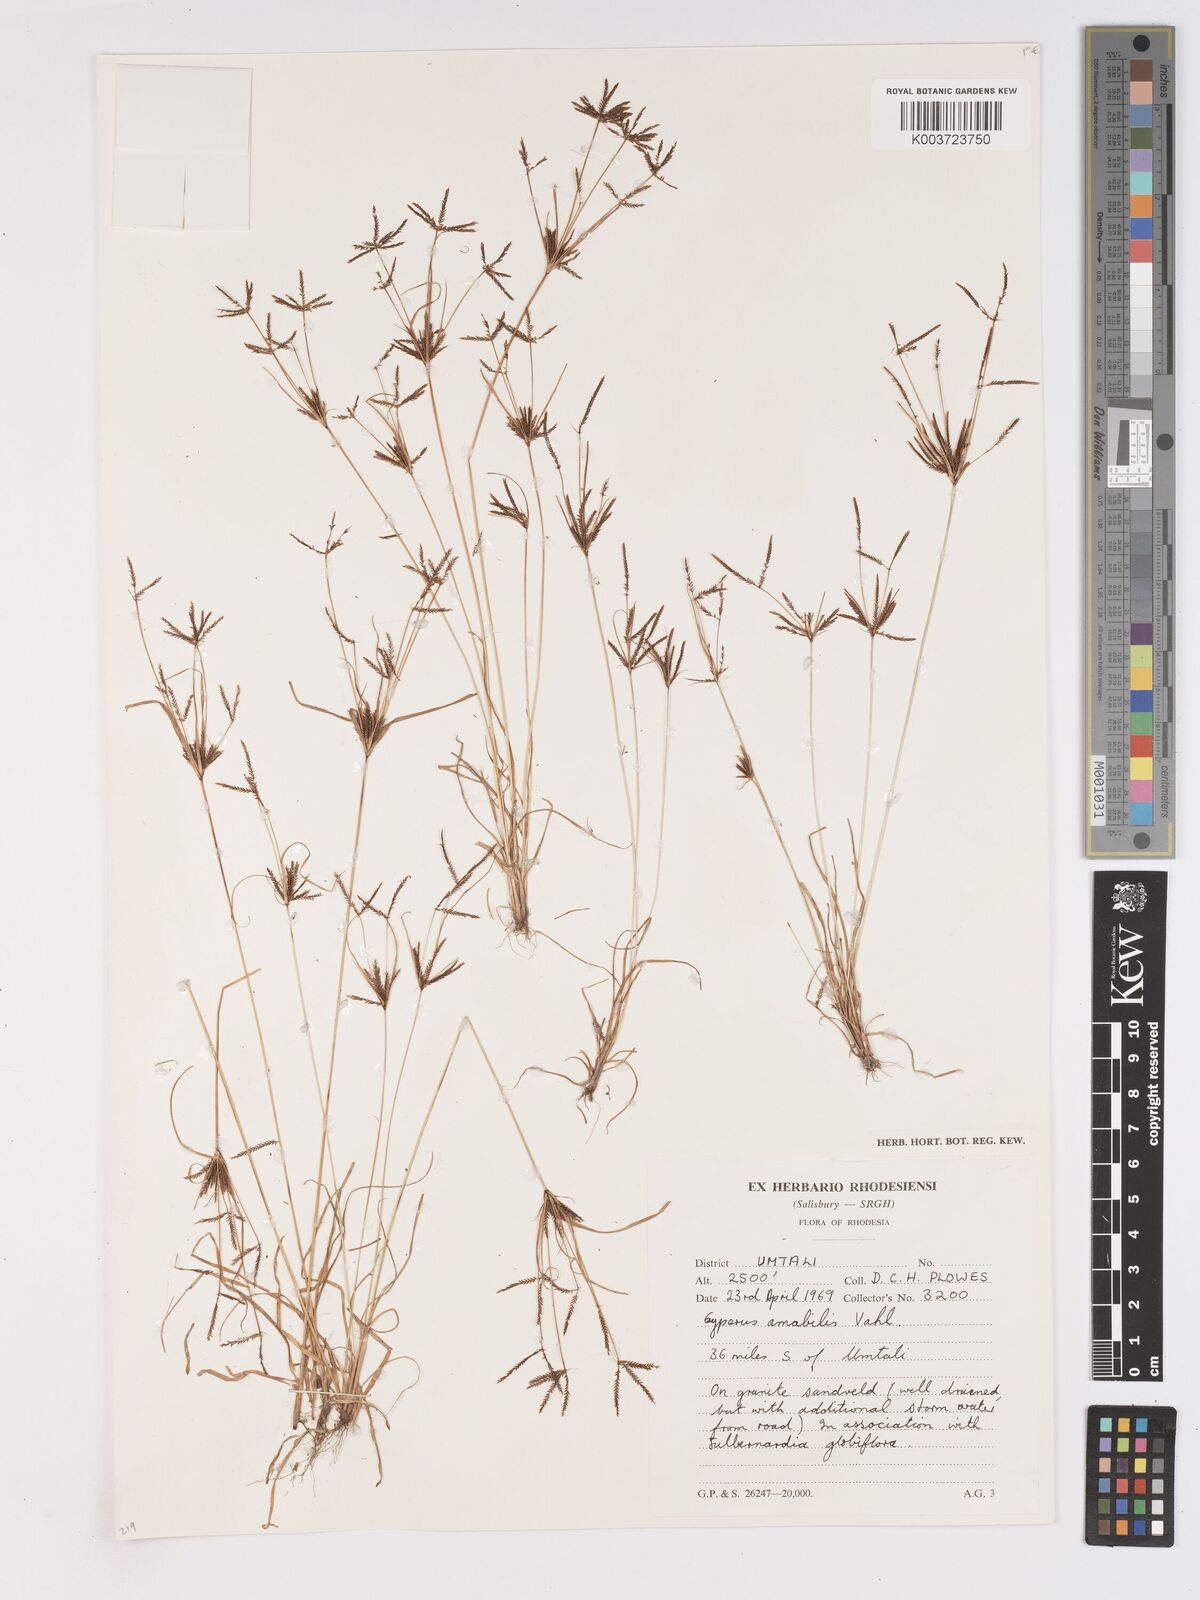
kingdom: Plantae
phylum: Tracheophyta
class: Liliopsida
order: Poales
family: Cyperaceae
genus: Cyperus
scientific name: Cyperus amabilis
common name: Foothill flat sedge
